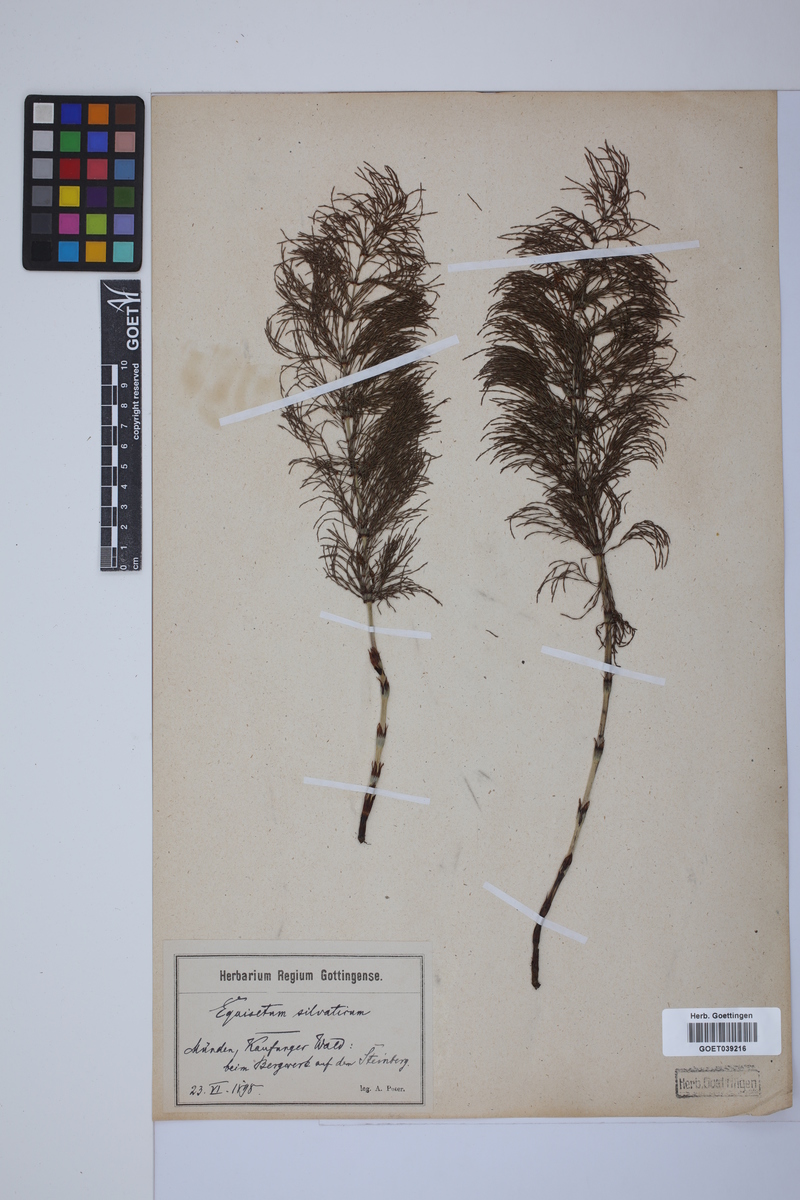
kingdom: Plantae
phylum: Tracheophyta
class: Polypodiopsida
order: Equisetales
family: Equisetaceae
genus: Equisetum
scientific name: Equisetum sylvaticum
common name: Wood horsetail
